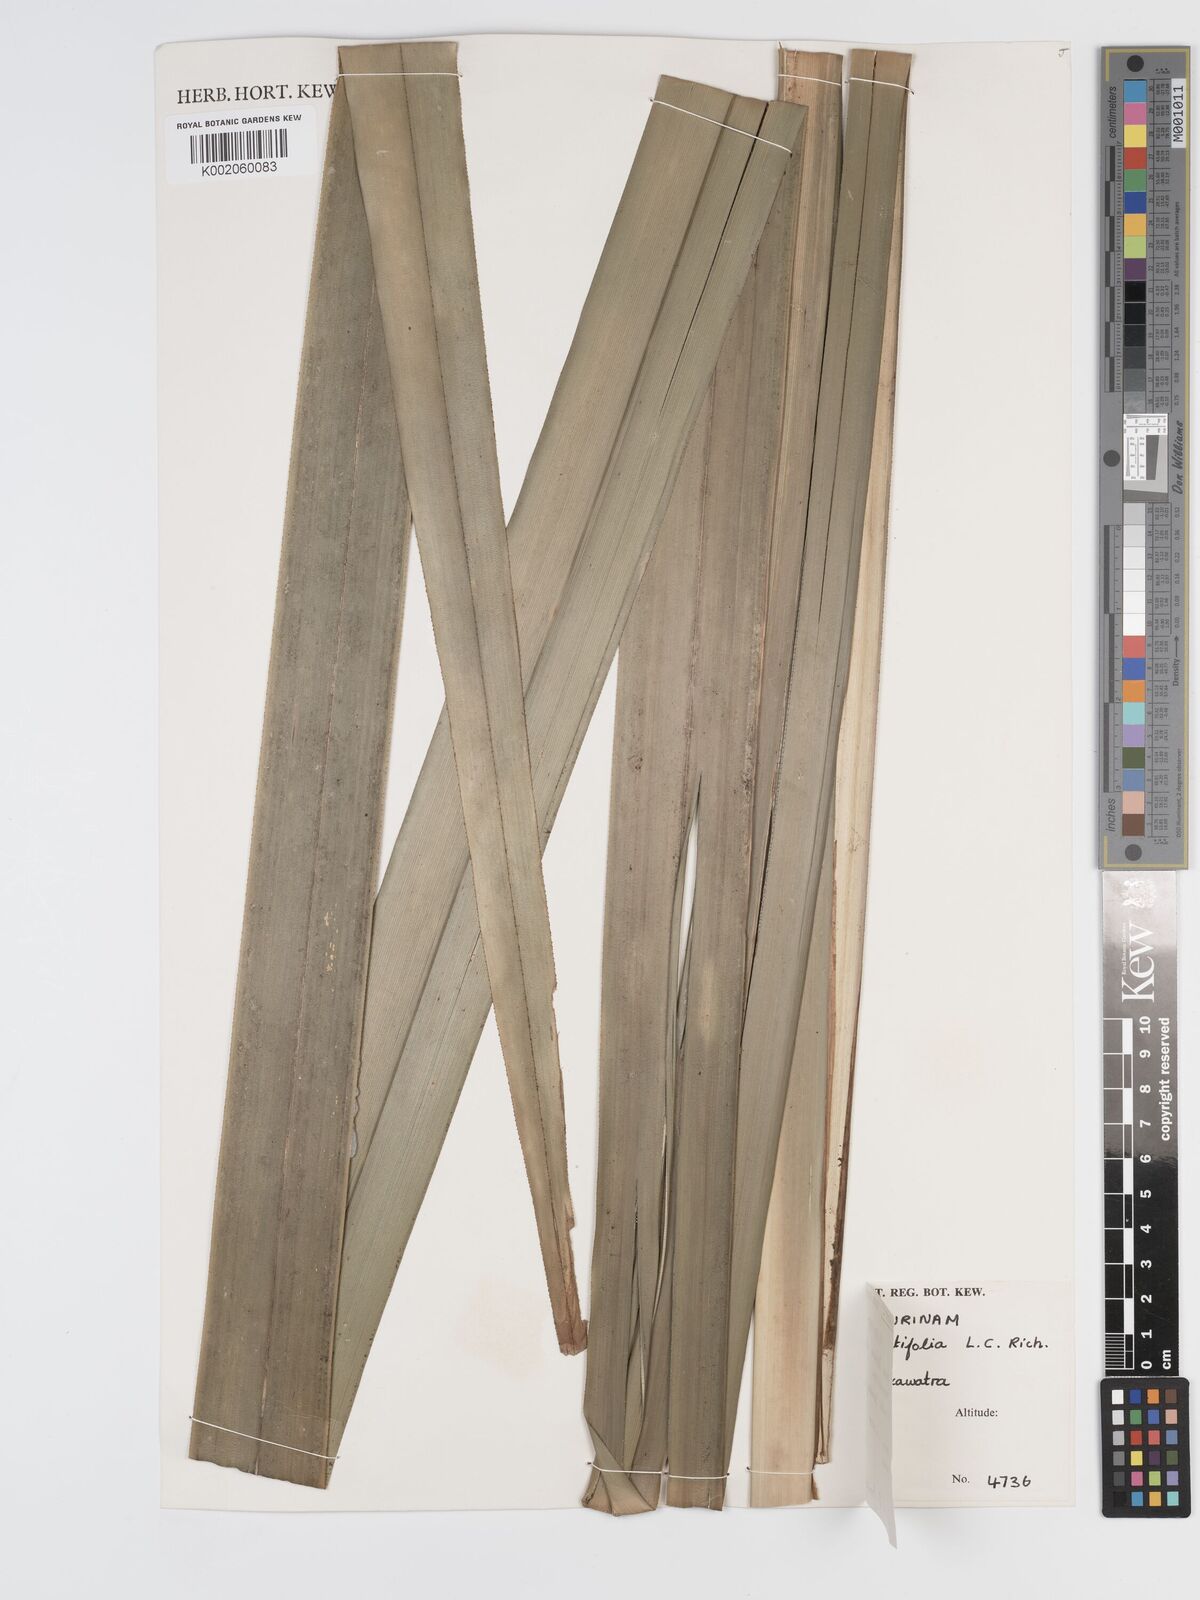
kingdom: Plantae
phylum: Tracheophyta
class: Liliopsida
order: Poales
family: Cyperaceae
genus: Diplasia
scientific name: Diplasia karatifolia
